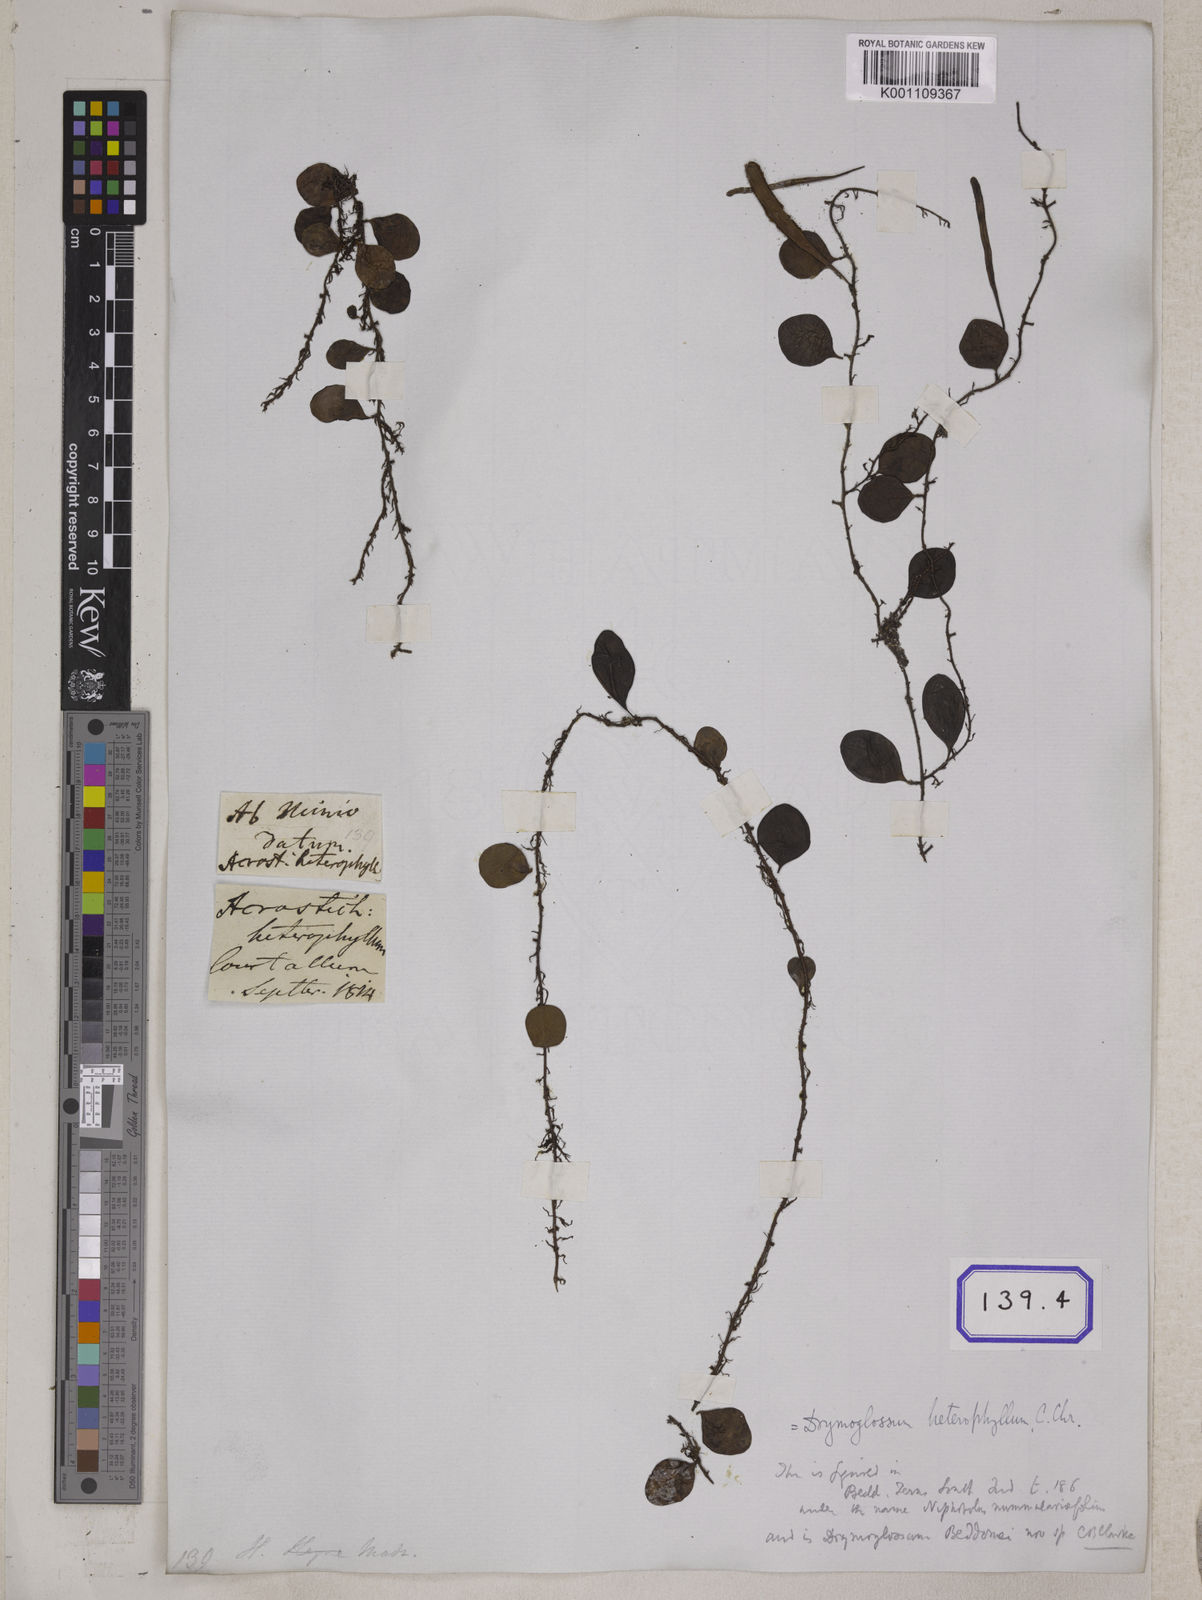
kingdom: Plantae
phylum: Tracheophyta
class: Polypodiopsida
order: Polypodiales
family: Polypodiaceae
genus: Pyrrosia
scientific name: Pyrrosia piloselloides
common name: Epiphytic creeping fern
